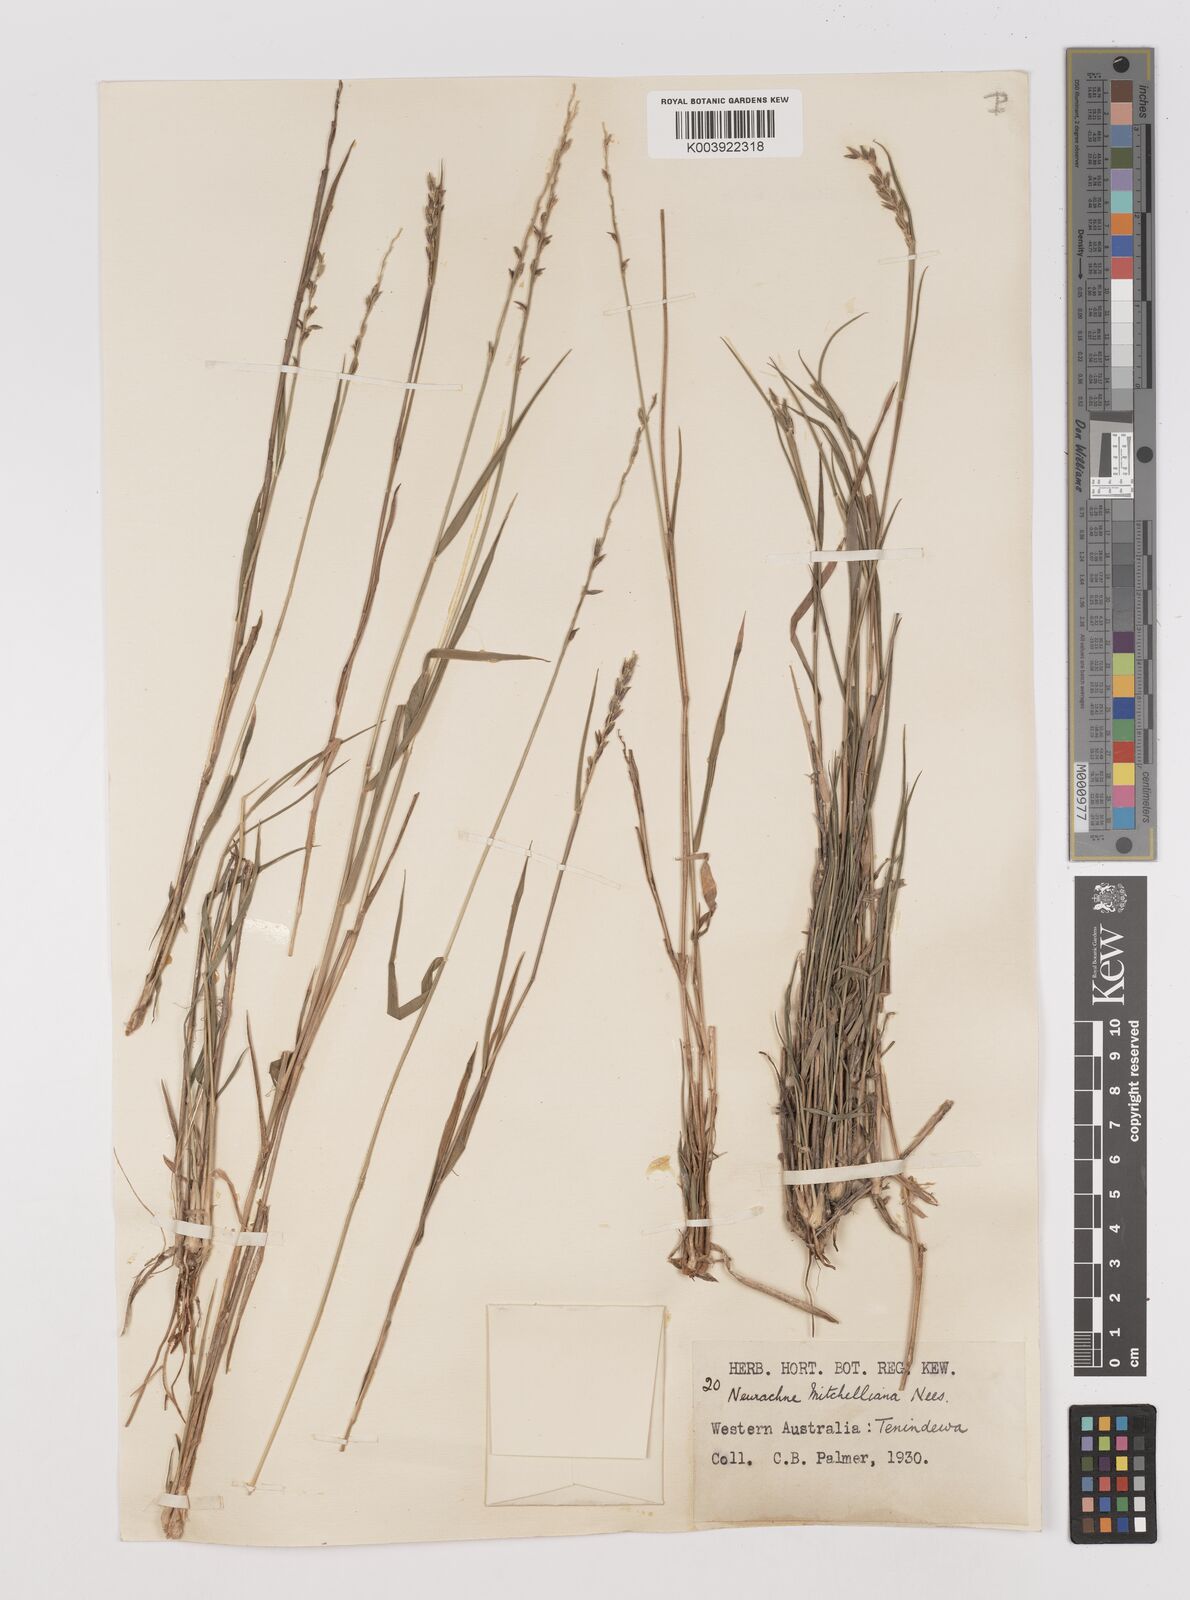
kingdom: Plantae
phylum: Tracheophyta
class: Liliopsida
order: Poales
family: Poaceae
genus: Thyridolepis
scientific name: Thyridolepis mitchelliana
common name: Rock tassel grass
